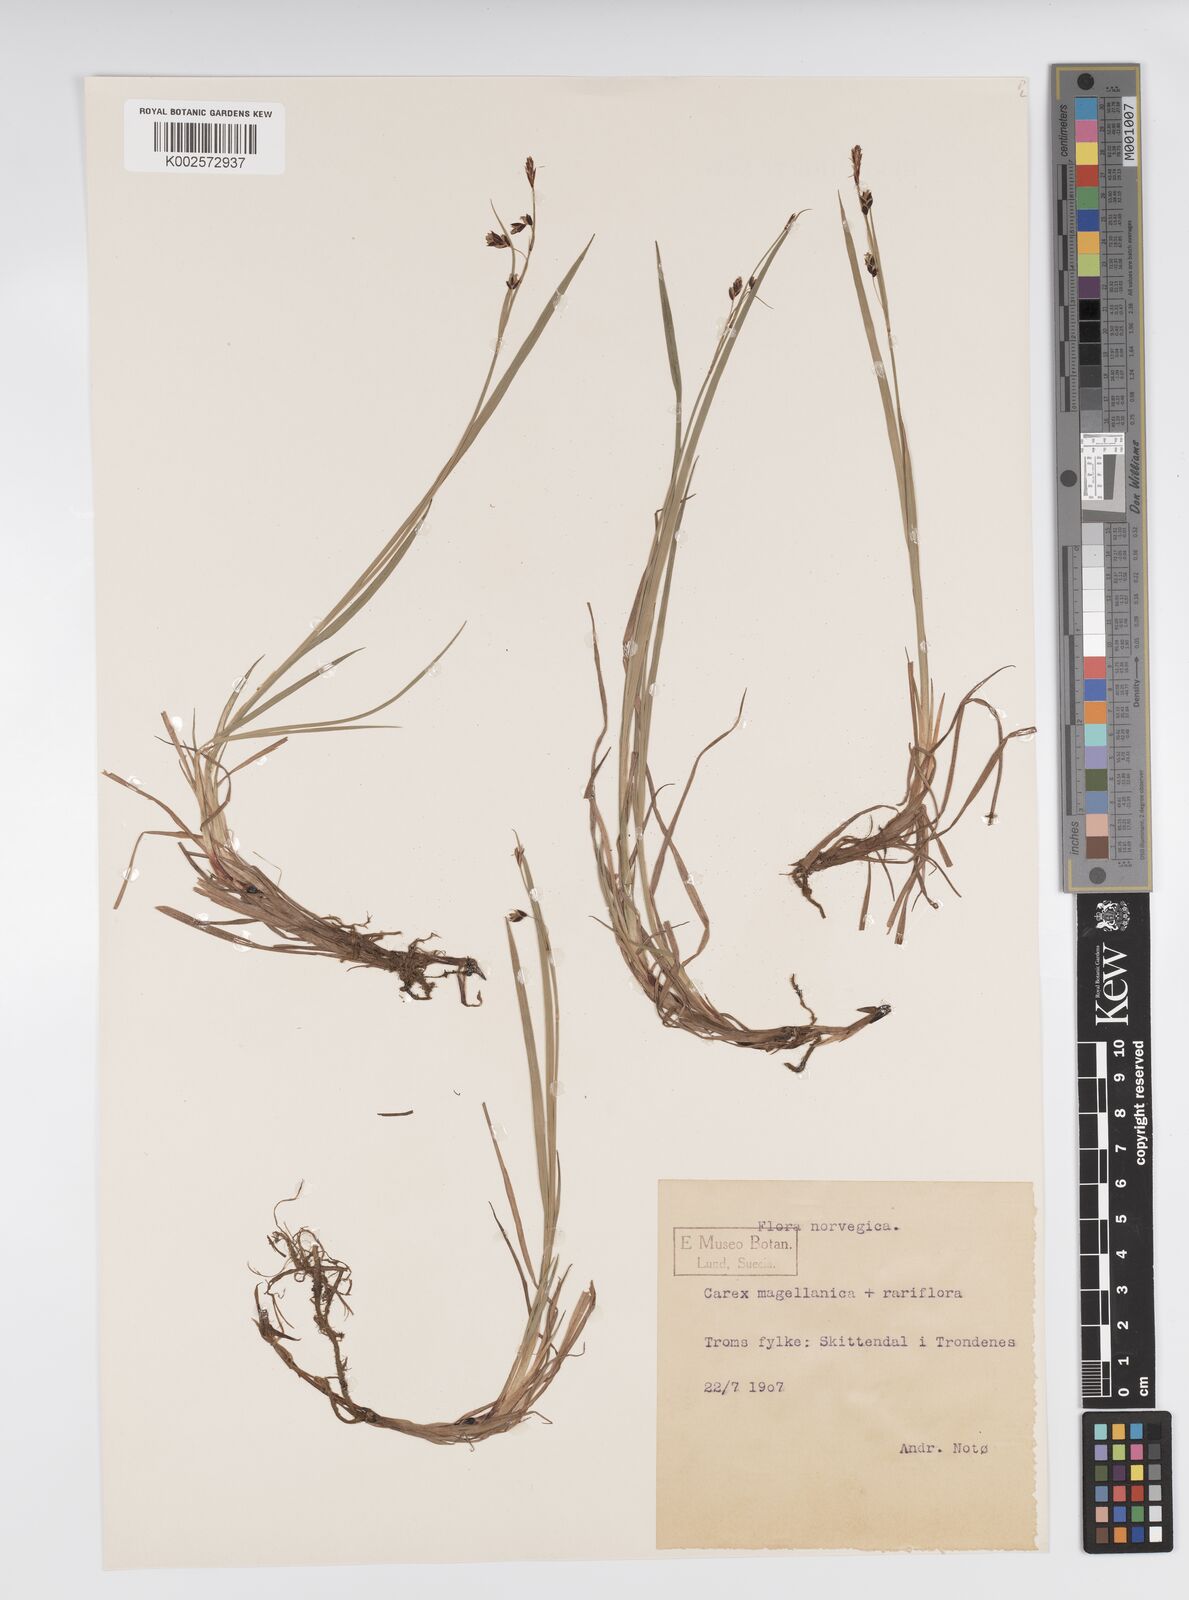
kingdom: Plantae
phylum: Tracheophyta
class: Liliopsida
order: Poales
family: Cyperaceae
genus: Carex
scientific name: Carex rariflora
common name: Loose-flowered alpine sedge
